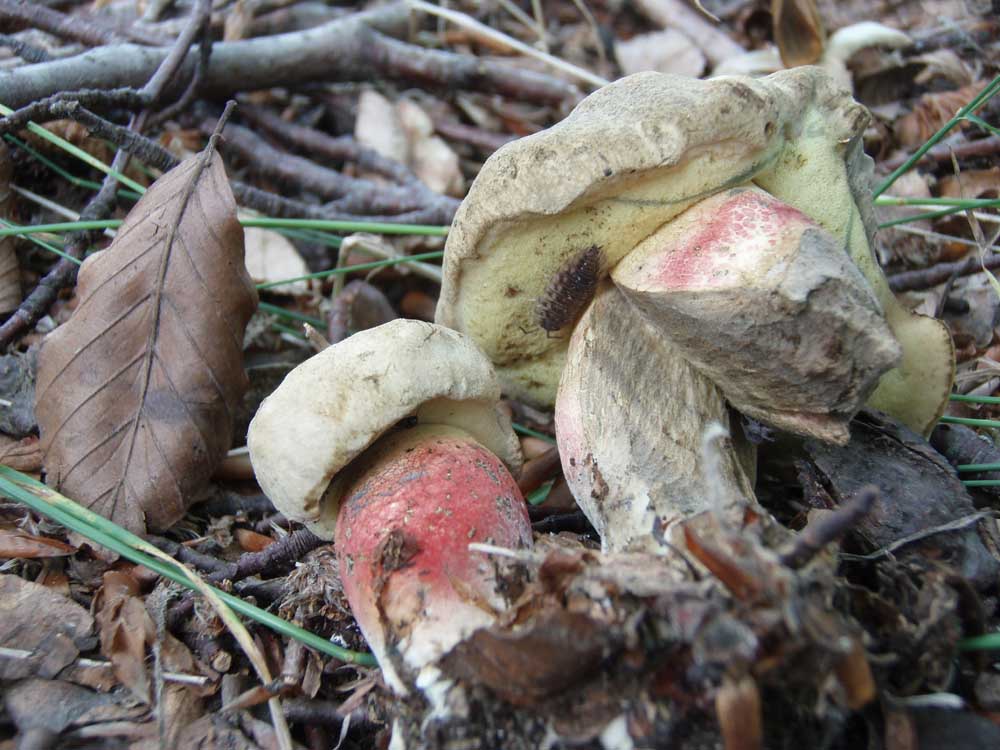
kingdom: Fungi
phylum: Basidiomycota
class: Agaricomycetes
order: Boletales
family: Boletaceae
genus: Caloboletus
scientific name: Caloboletus calopus
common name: skønfodet rørhat
